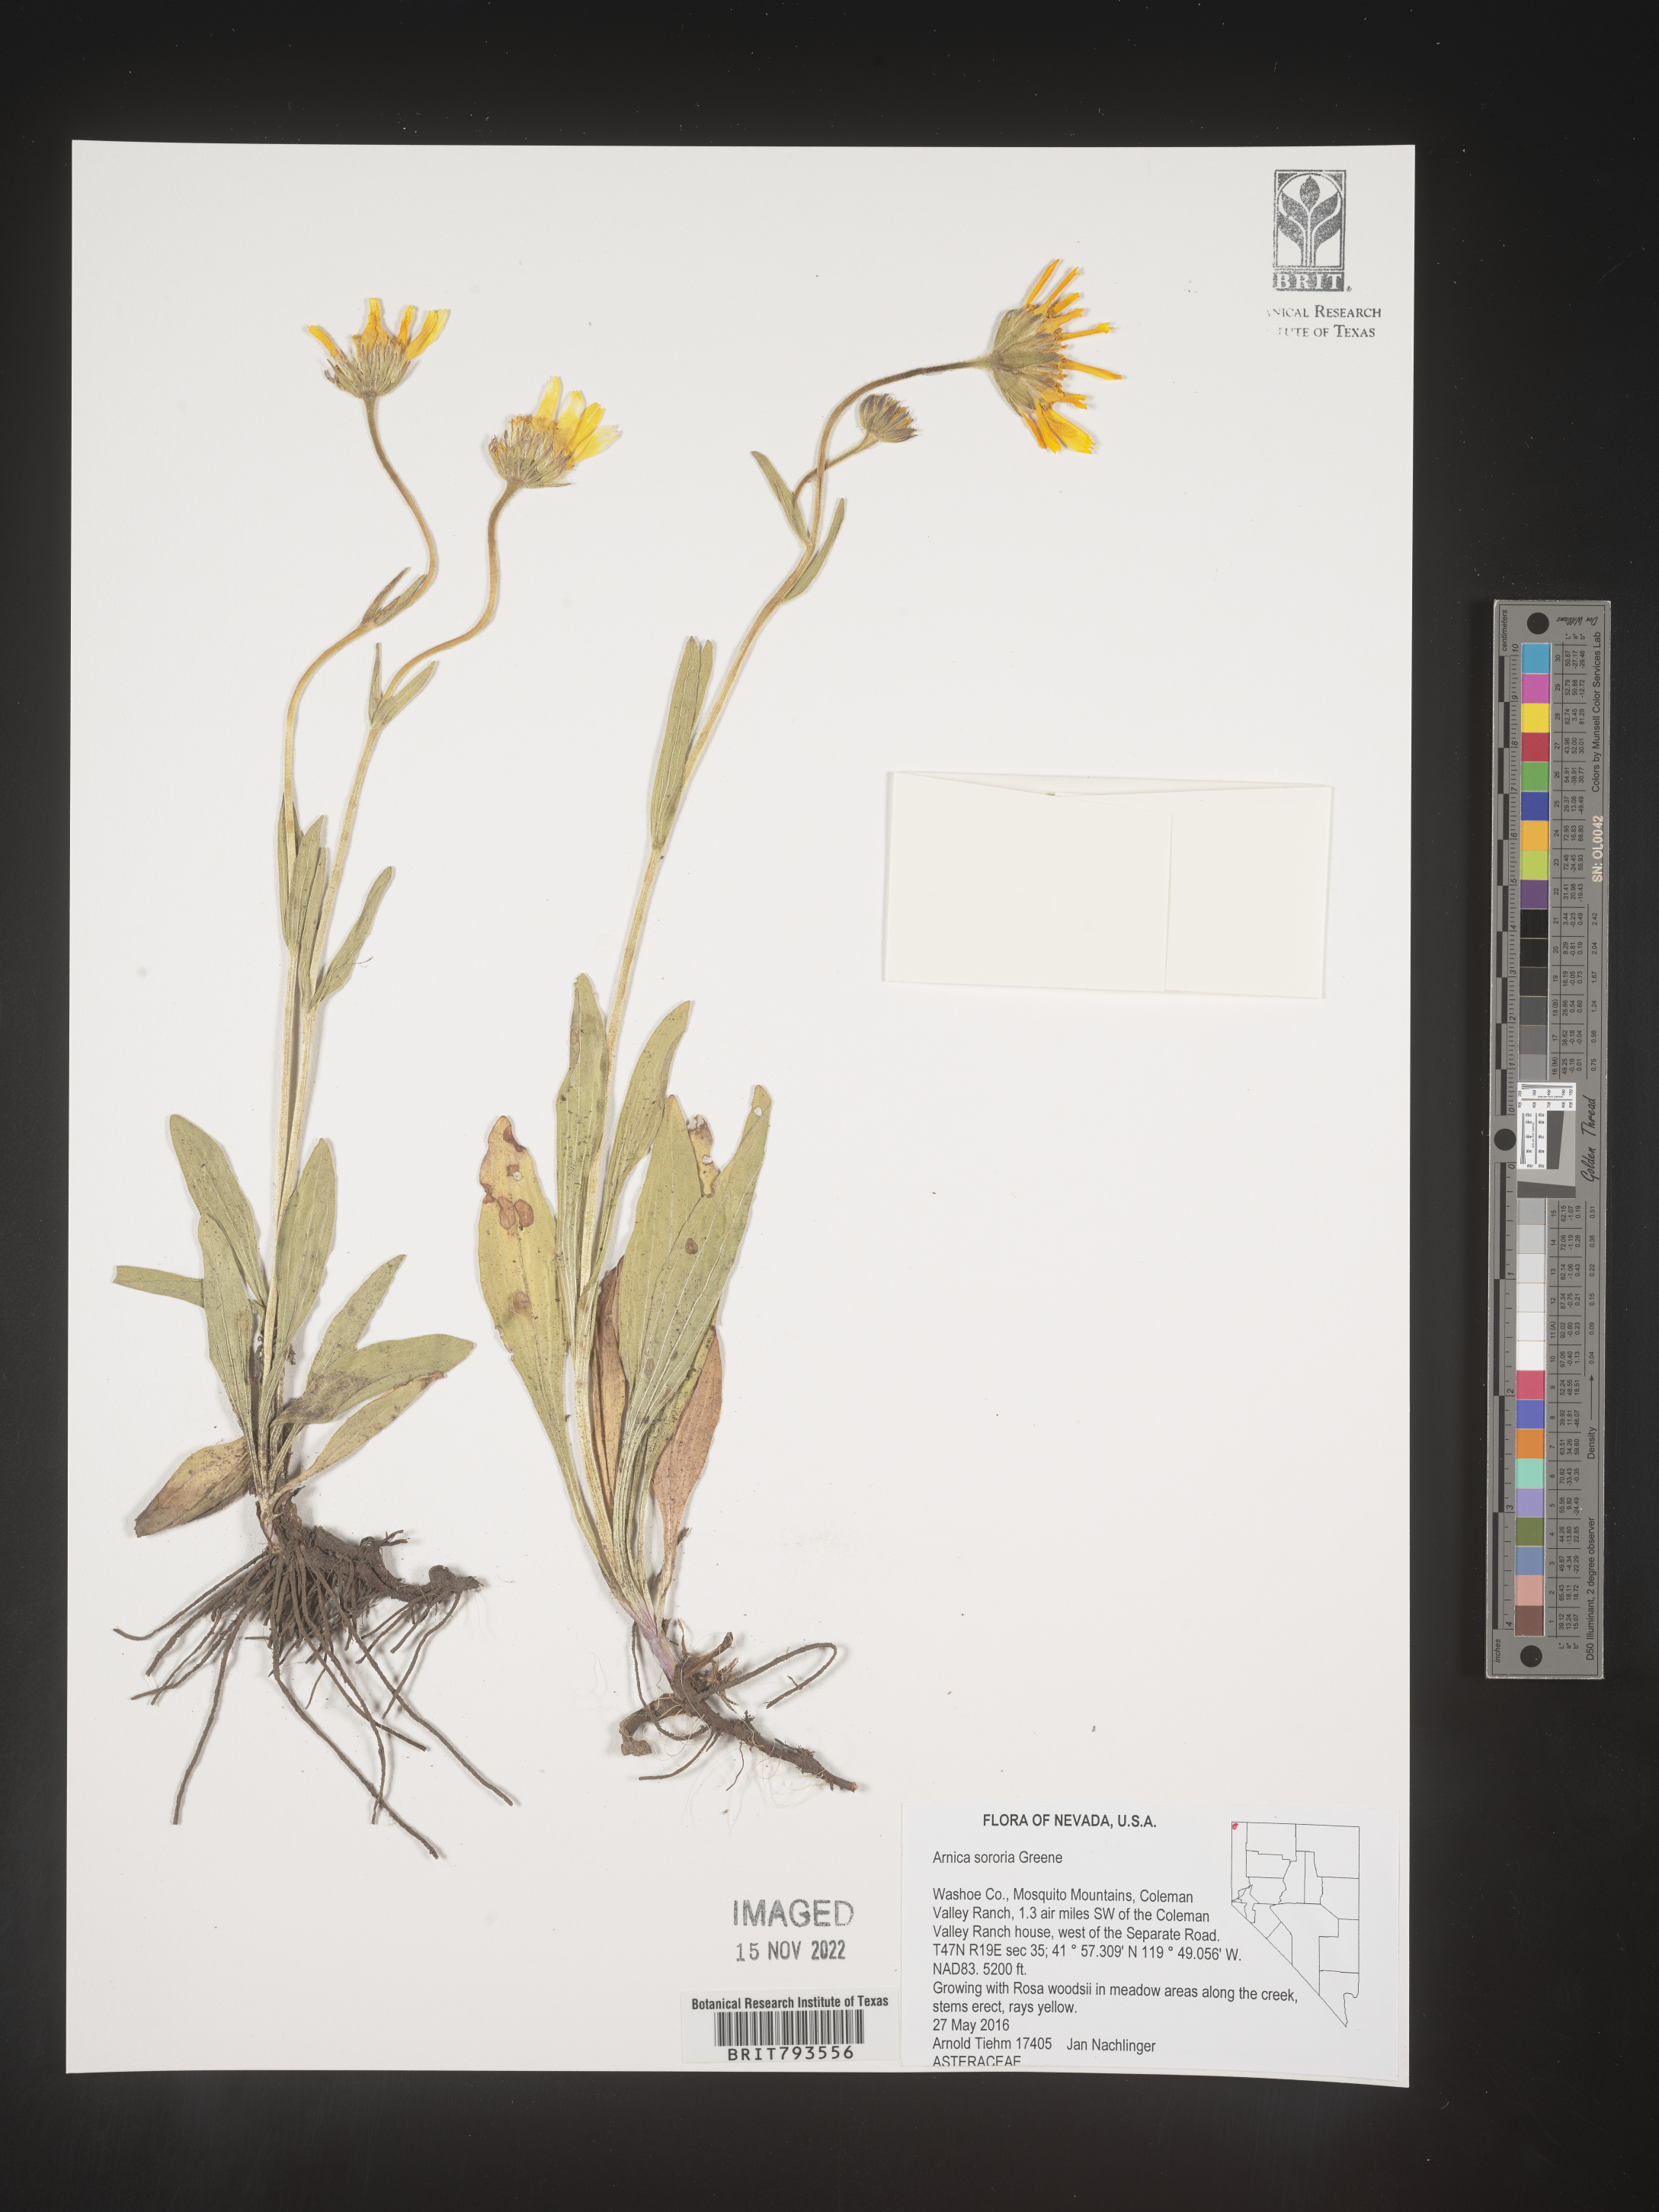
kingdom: Plantae
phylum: Tracheophyta
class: Magnoliopsida
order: Asterales
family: Asteraceae
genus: Arnica
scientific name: Arnica sororia
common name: Twin arnica
